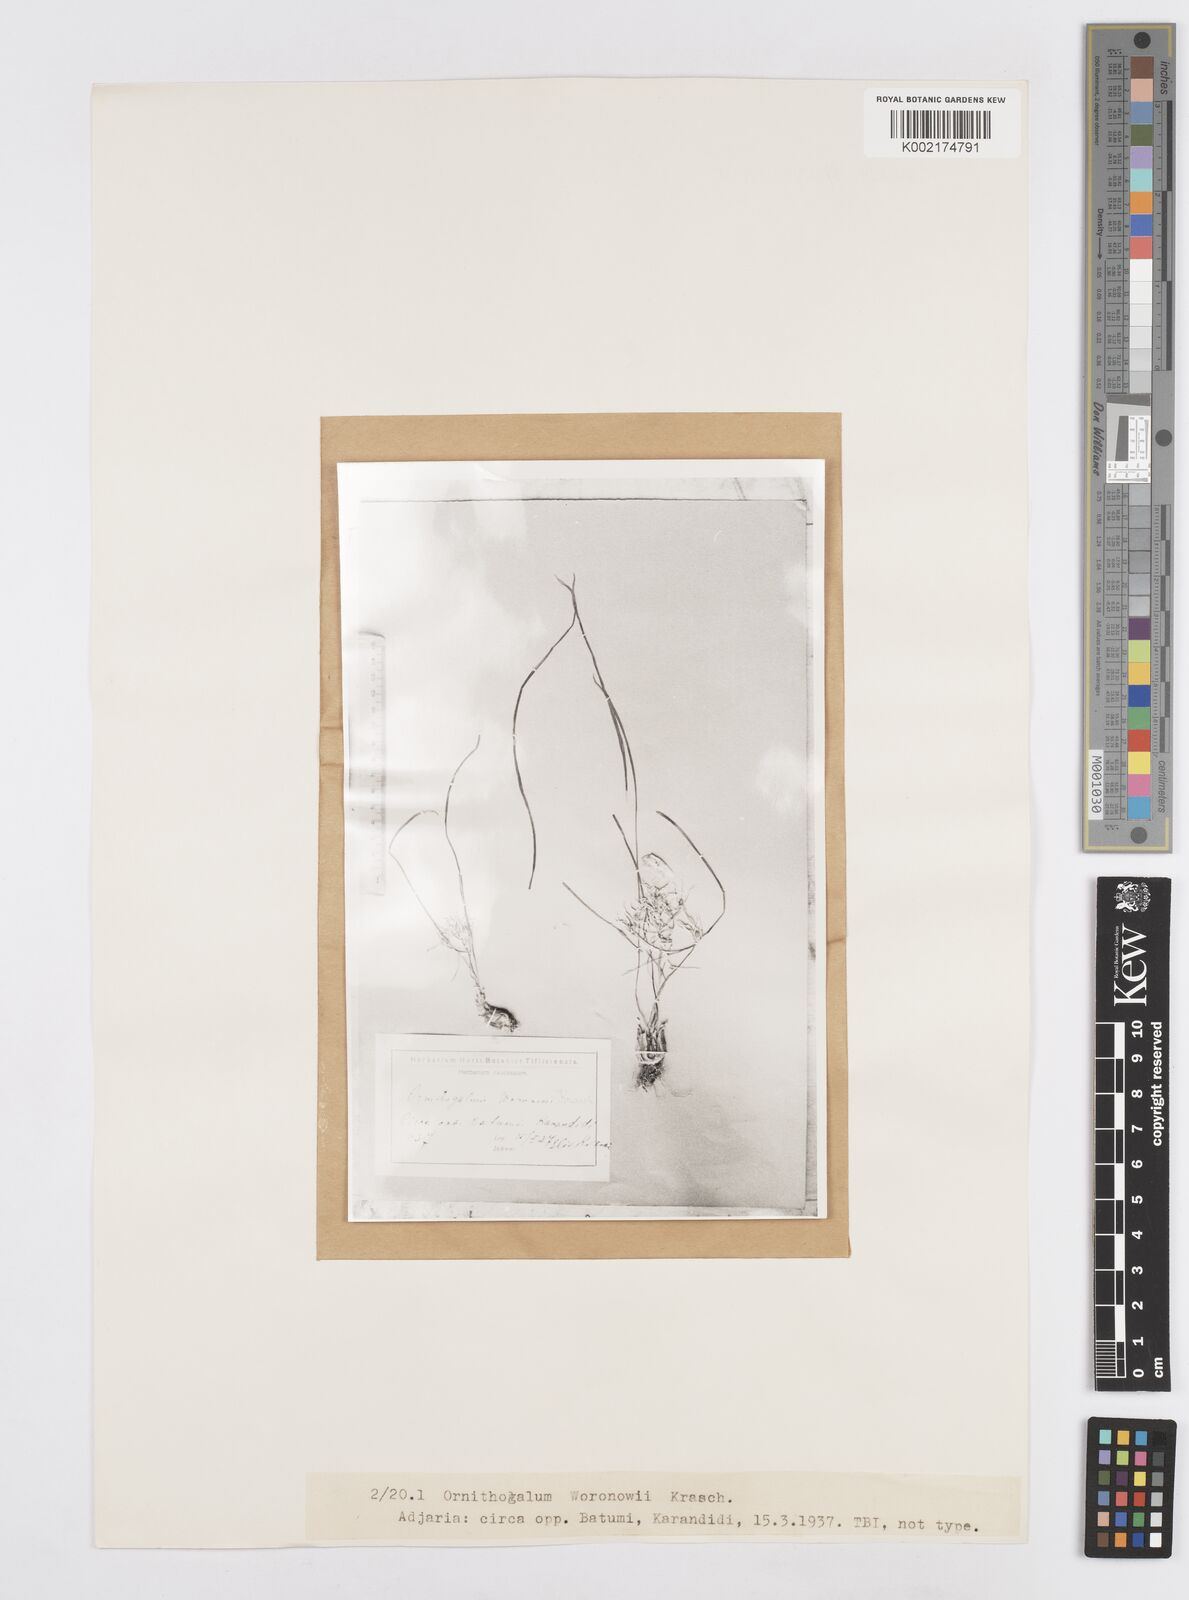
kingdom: Plantae
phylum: Tracheophyta
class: Liliopsida
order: Asparagales
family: Asparagaceae
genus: Ornithogalum
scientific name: Ornithogalum woronowii
